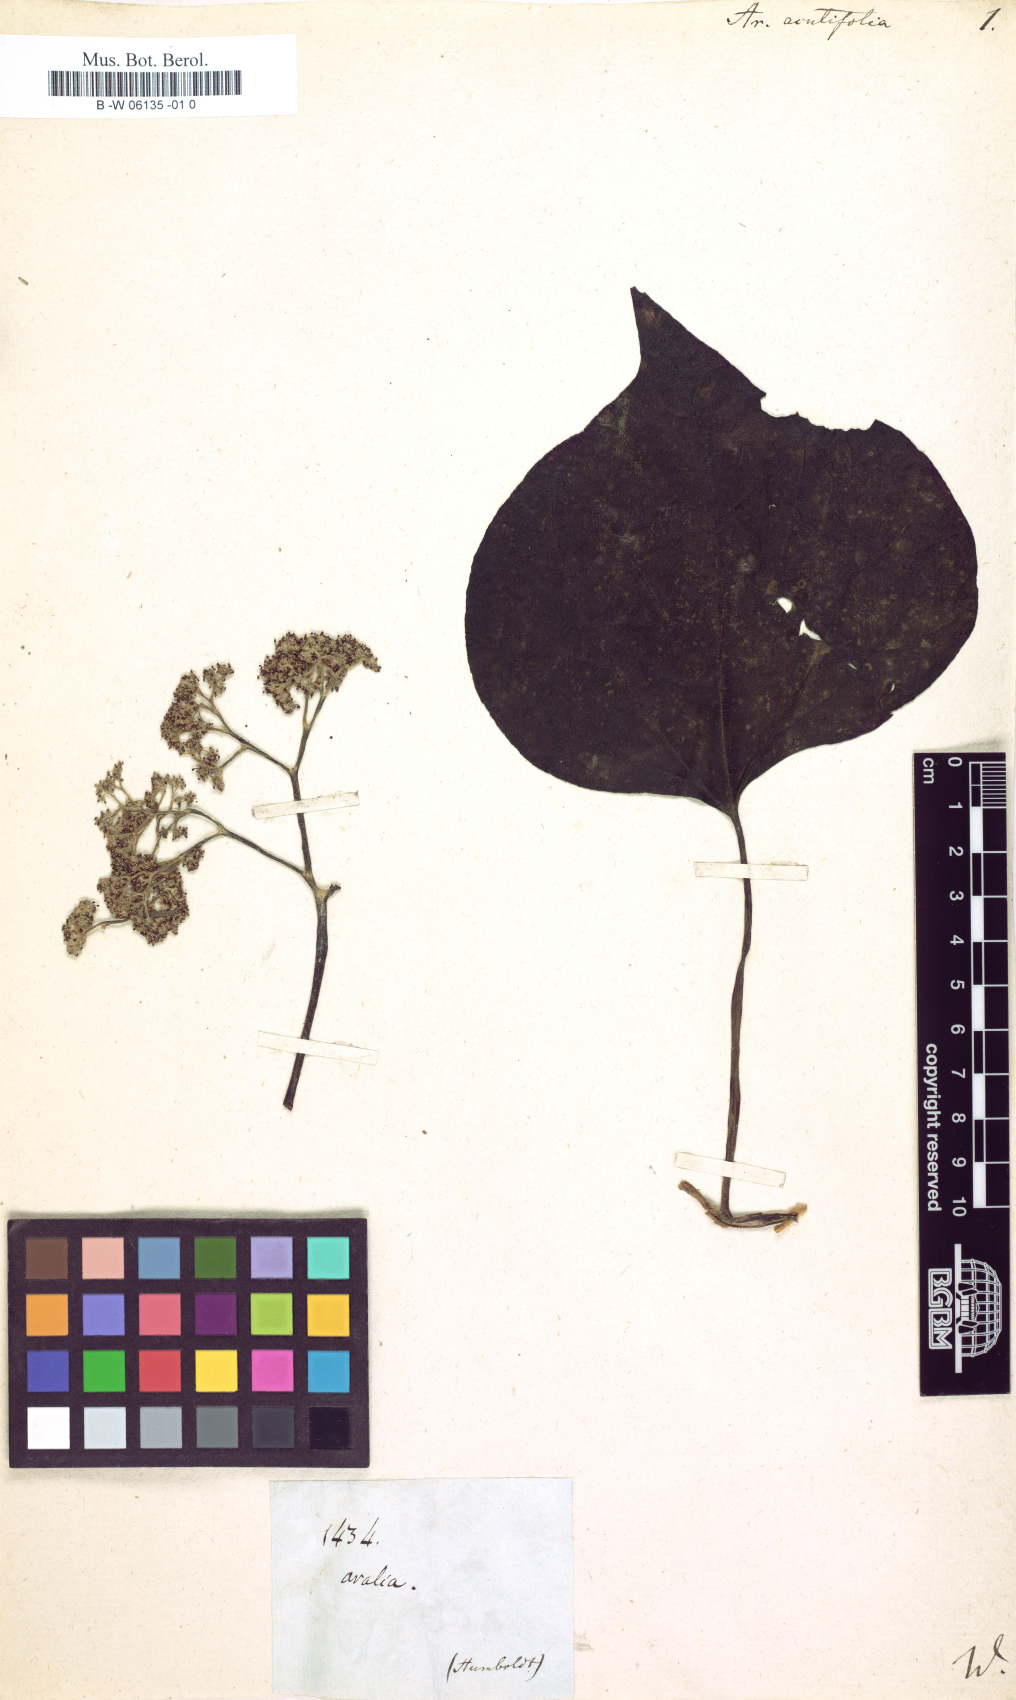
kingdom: Plantae
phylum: Tracheophyta
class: Magnoliopsida
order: Apiales
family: Araliaceae
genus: Aralia
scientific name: Aralia acutifolia
